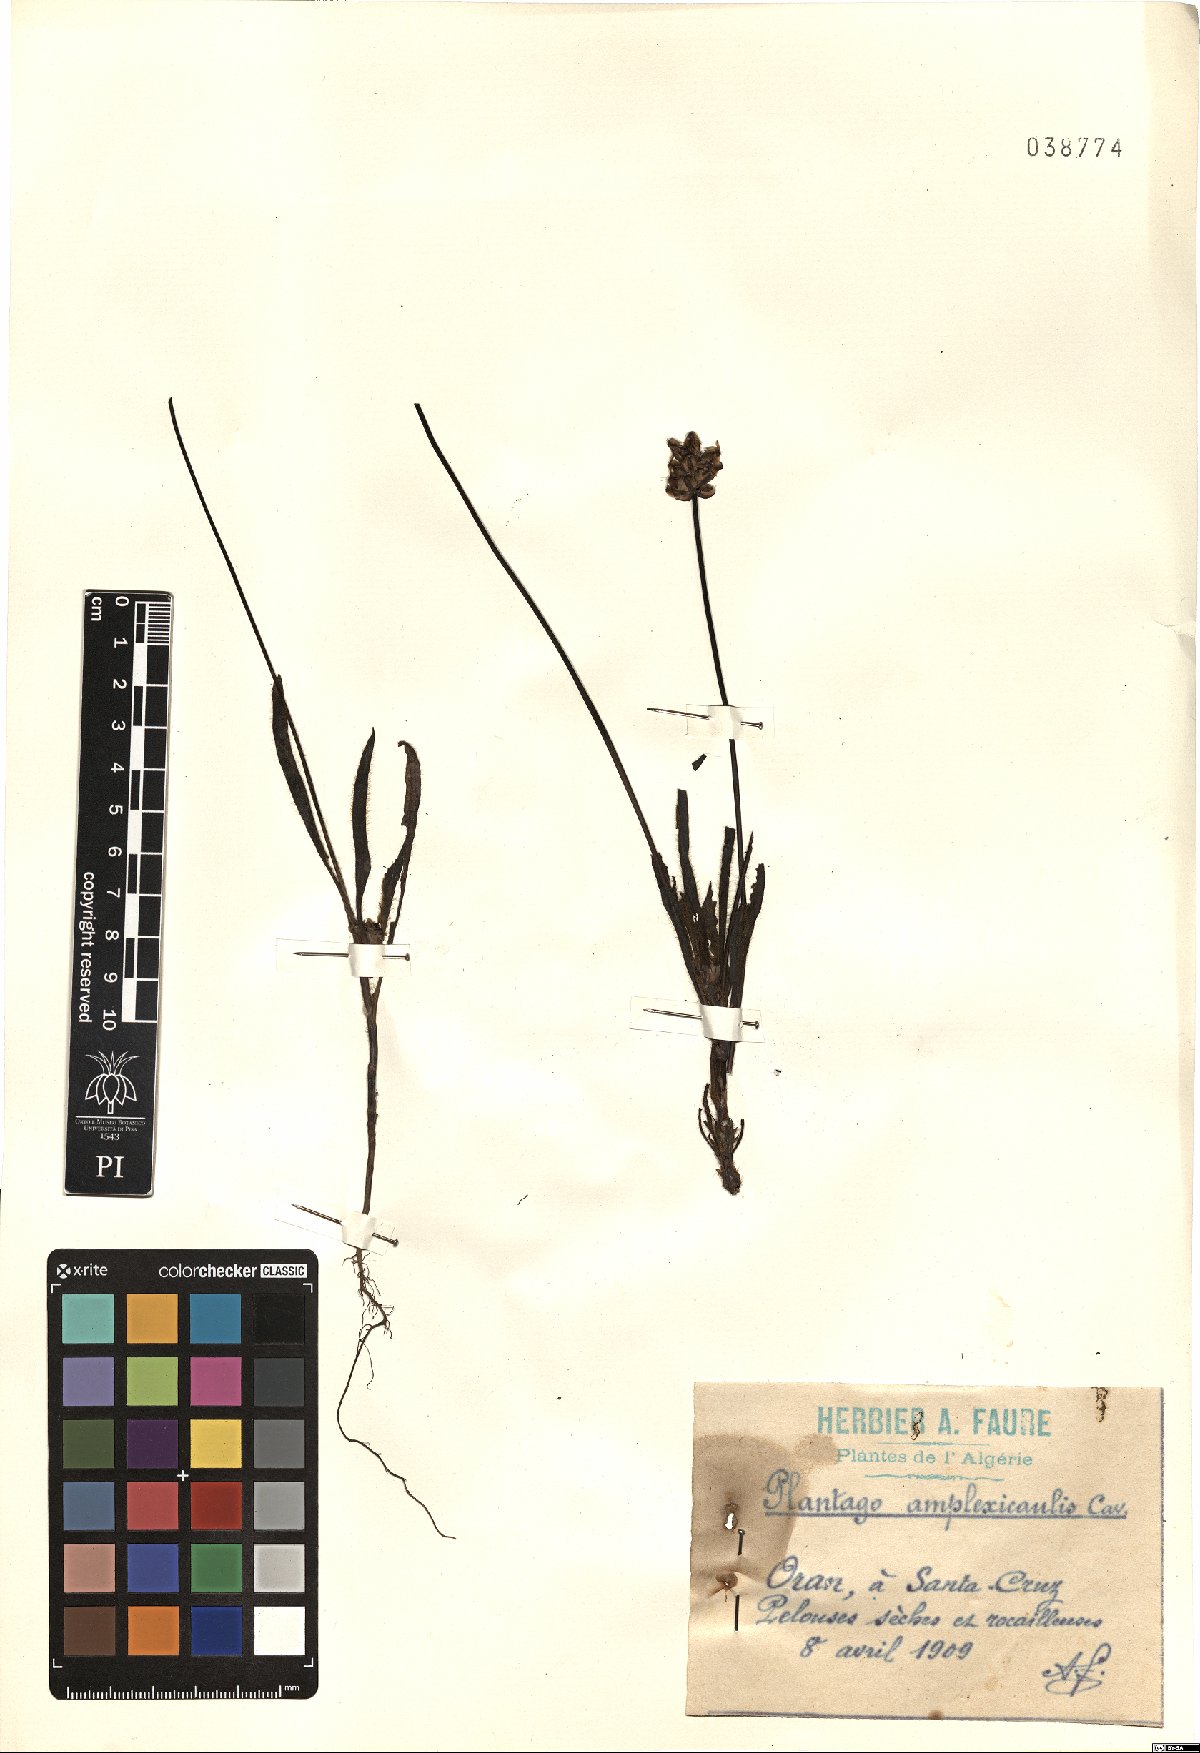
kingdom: Plantae
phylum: Tracheophyta
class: Magnoliopsida
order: Lamiales
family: Plantaginaceae
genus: Plantago
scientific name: Plantago amplexicaulis
